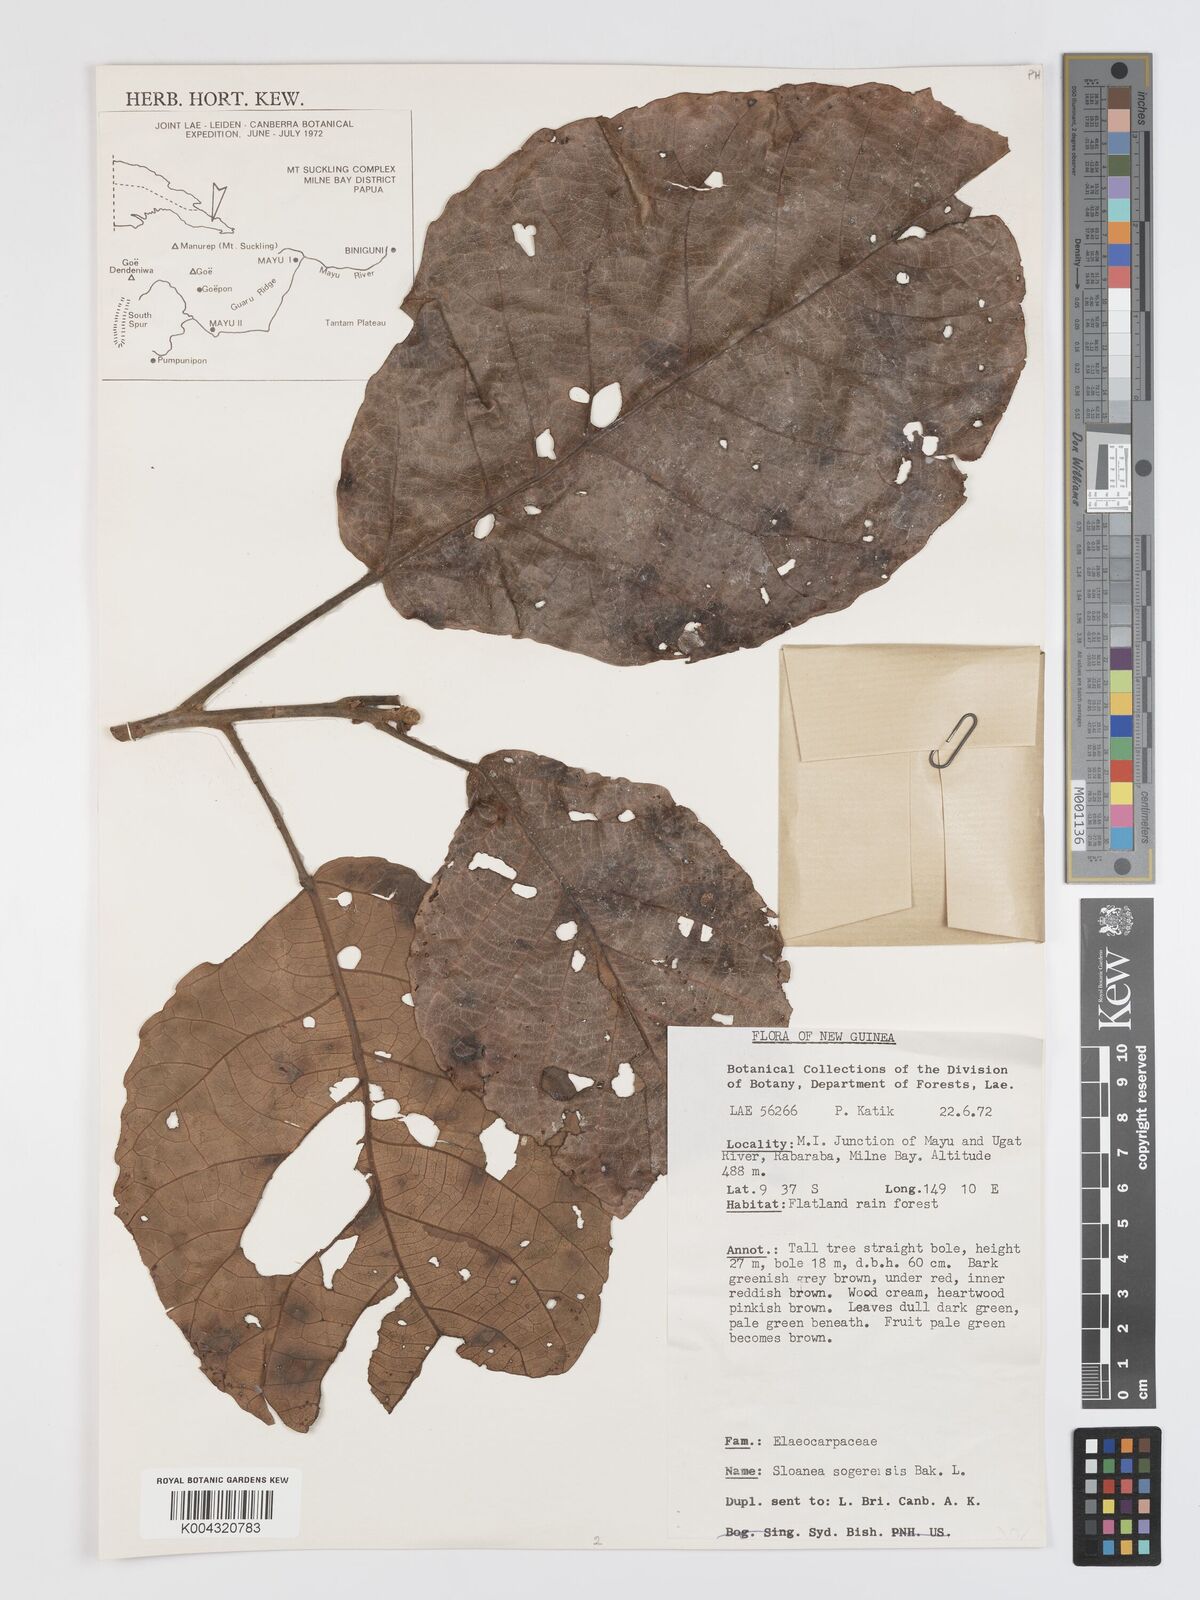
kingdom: Plantae
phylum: Tracheophyta
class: Magnoliopsida
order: Oxalidales
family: Elaeocarpaceae
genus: Sloanea
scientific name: Sloanea sogerensis
